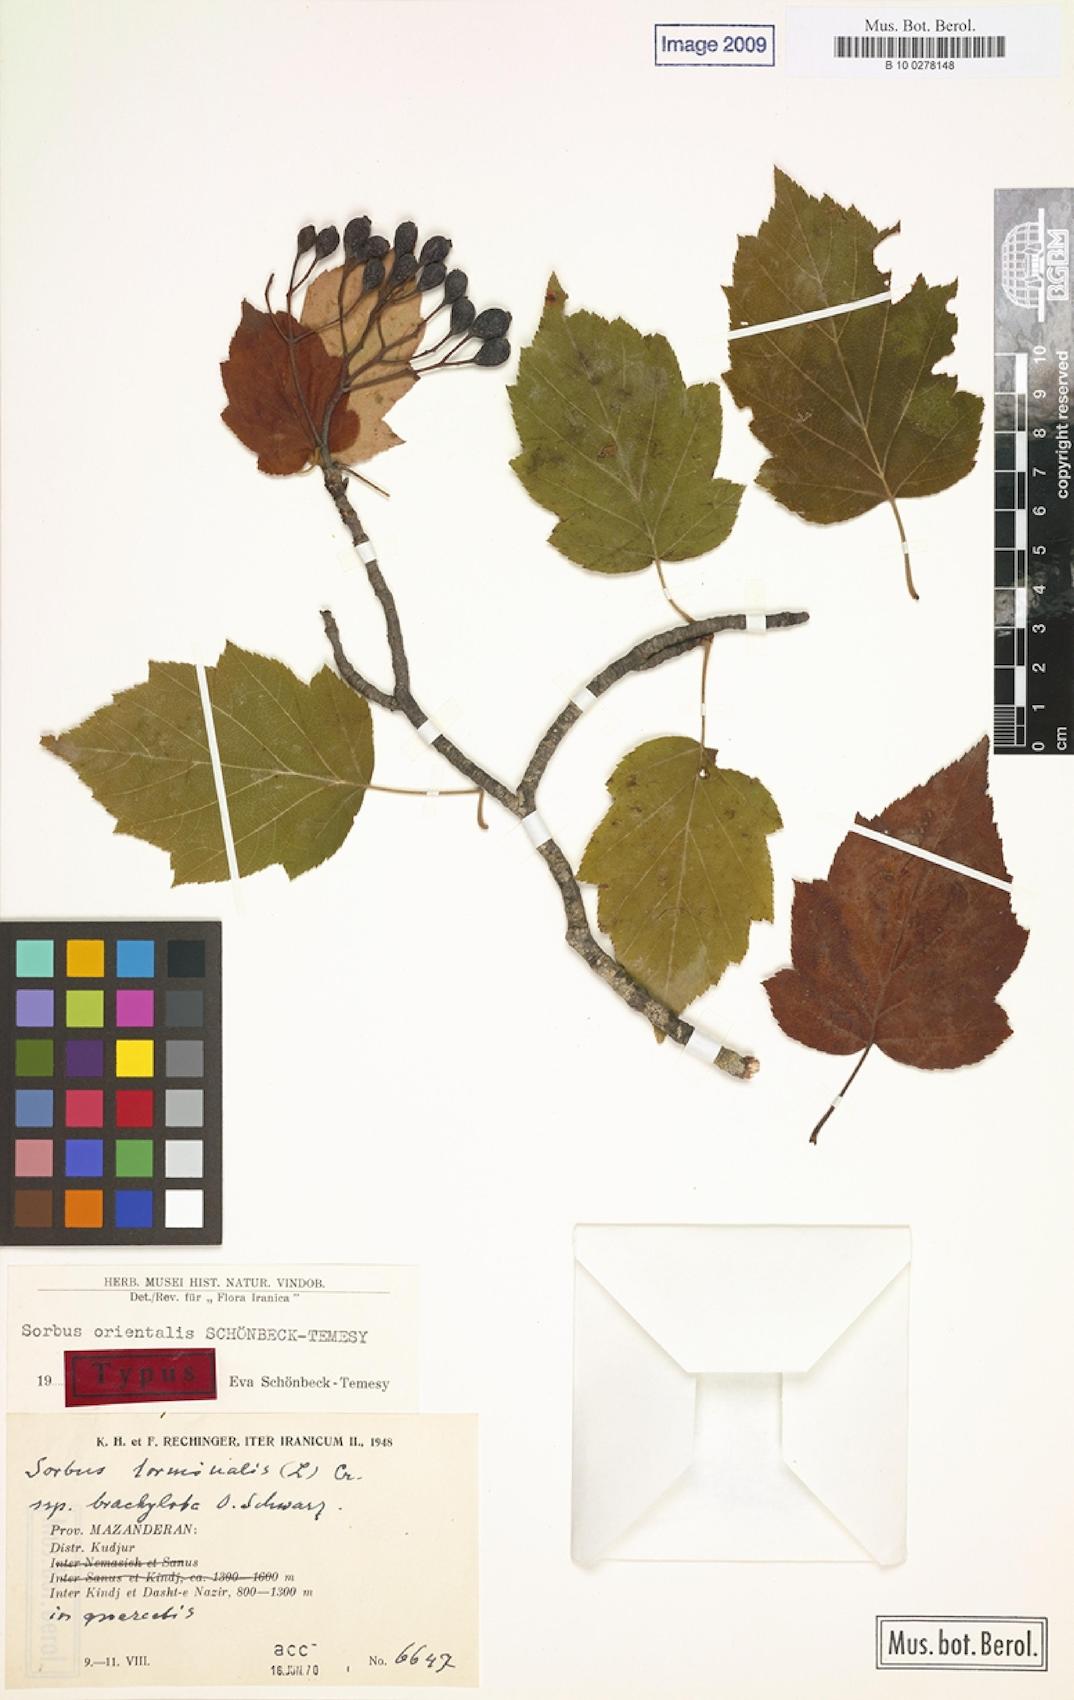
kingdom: Plantae
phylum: Tracheophyta
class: Magnoliopsida
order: Rosales
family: Rosaceae
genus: Torminalis
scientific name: Torminalis glaberrima
